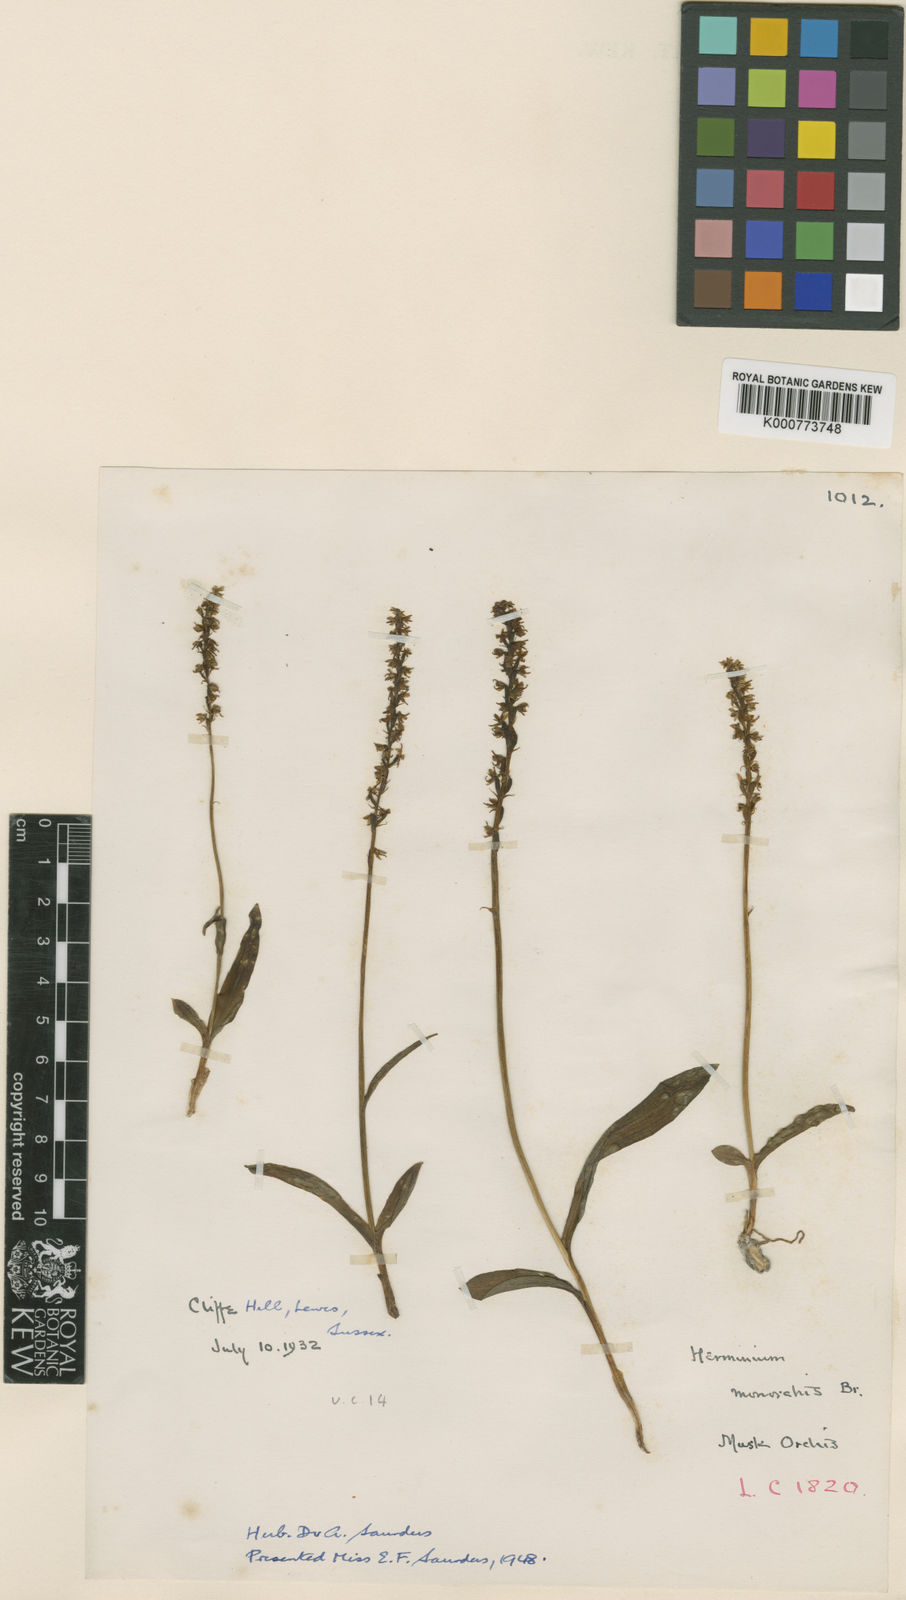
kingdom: Plantae
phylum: Tracheophyta
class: Liliopsida
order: Asparagales
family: Orchidaceae
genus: Herminium
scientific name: Herminium monorchis
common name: Musk orchid
